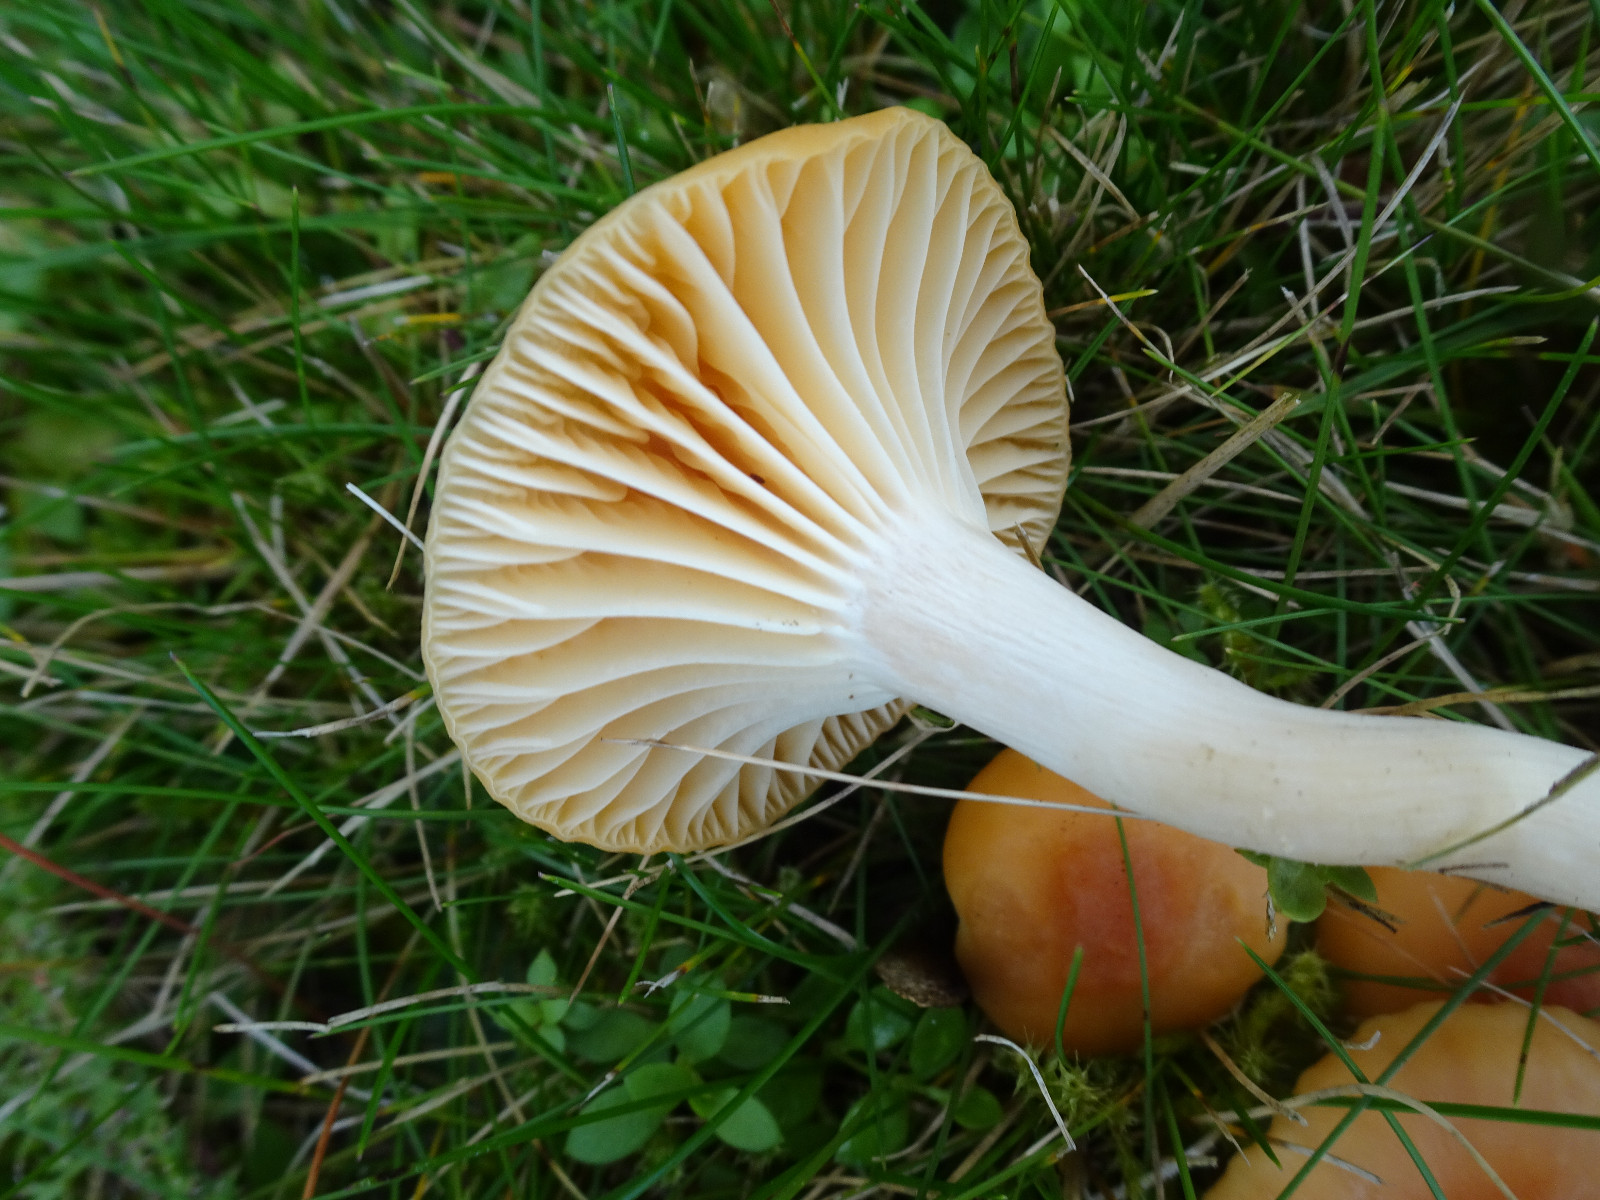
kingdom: Fungi
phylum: Basidiomycota
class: Agaricomycetes
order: Agaricales
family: Hygrophoraceae
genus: Cuphophyllus
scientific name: Cuphophyllus pratensis
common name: eng-vokshat
